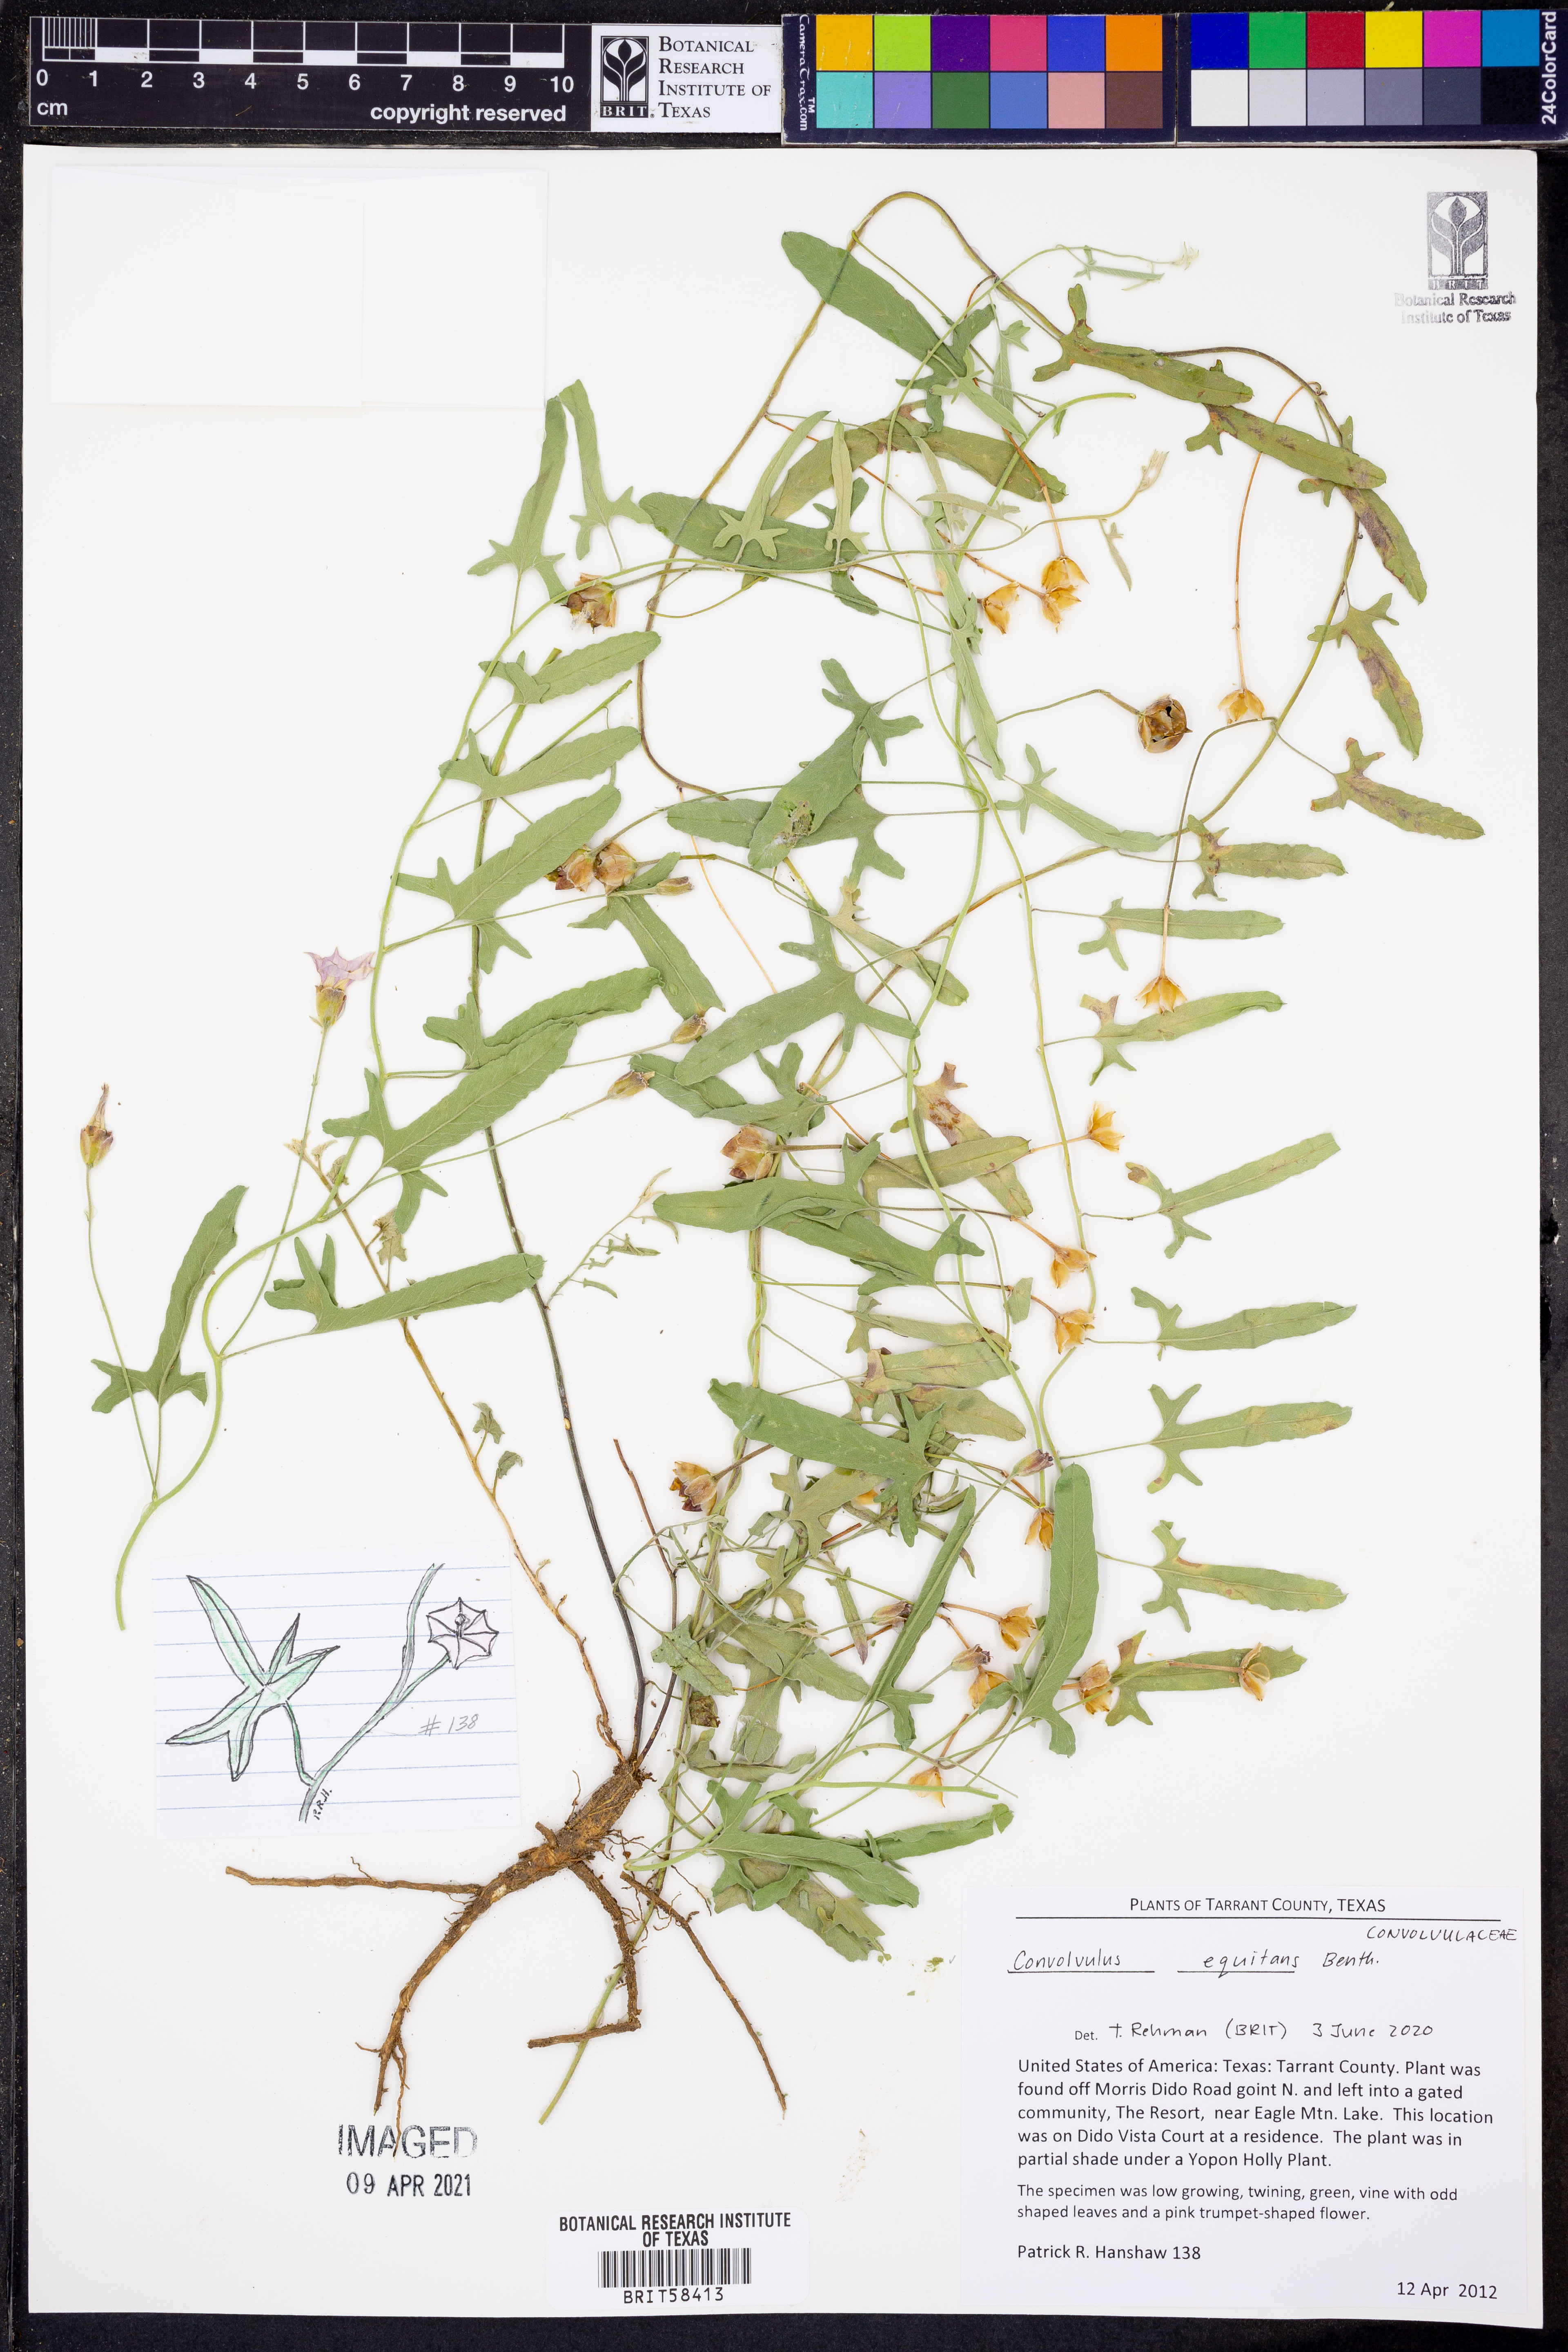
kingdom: Plantae
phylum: Tracheophyta
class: Magnoliopsida
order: Solanales
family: Convolvulaceae
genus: Convolvulus
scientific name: Convolvulus equitans
